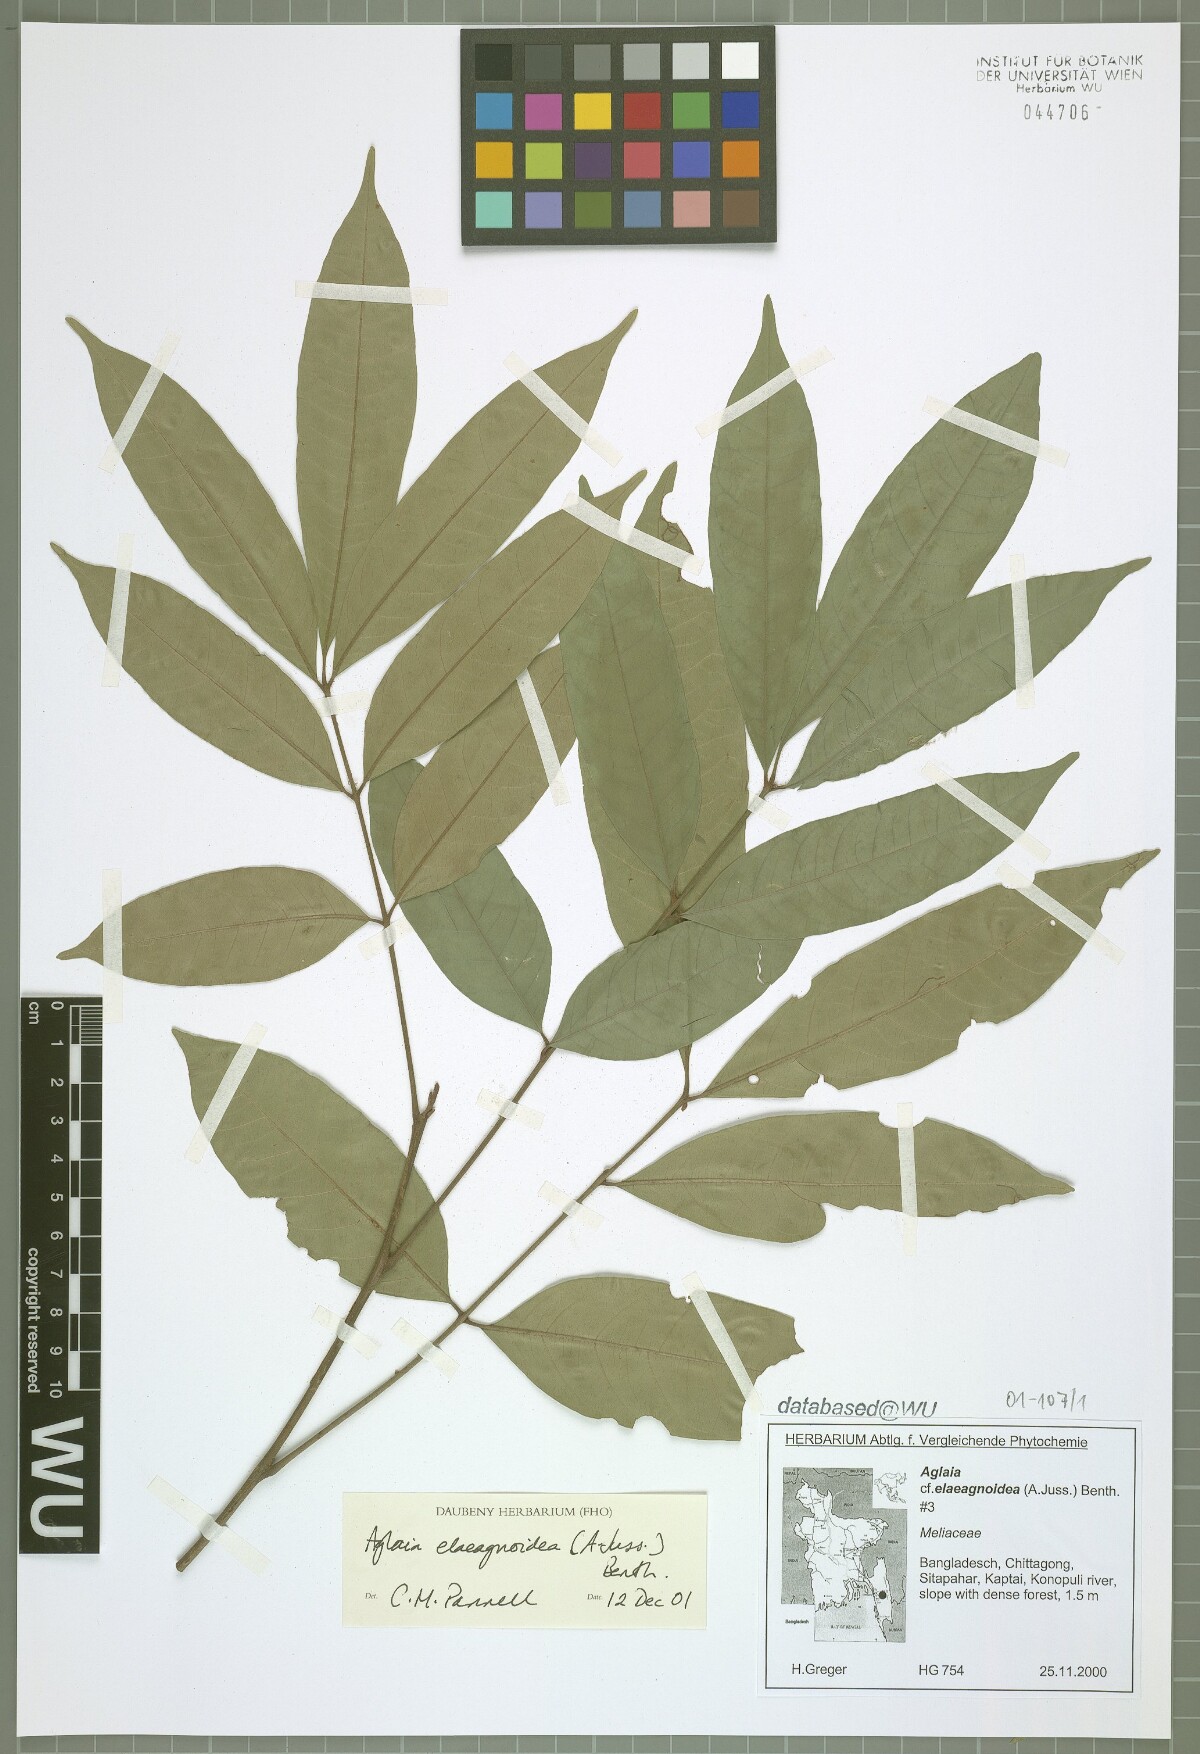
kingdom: Plantae
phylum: Tracheophyta
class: Magnoliopsida
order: Sapindales
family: Meliaceae
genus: Aglaia
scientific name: Aglaia elaeagnoidea
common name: Droopyleaf
